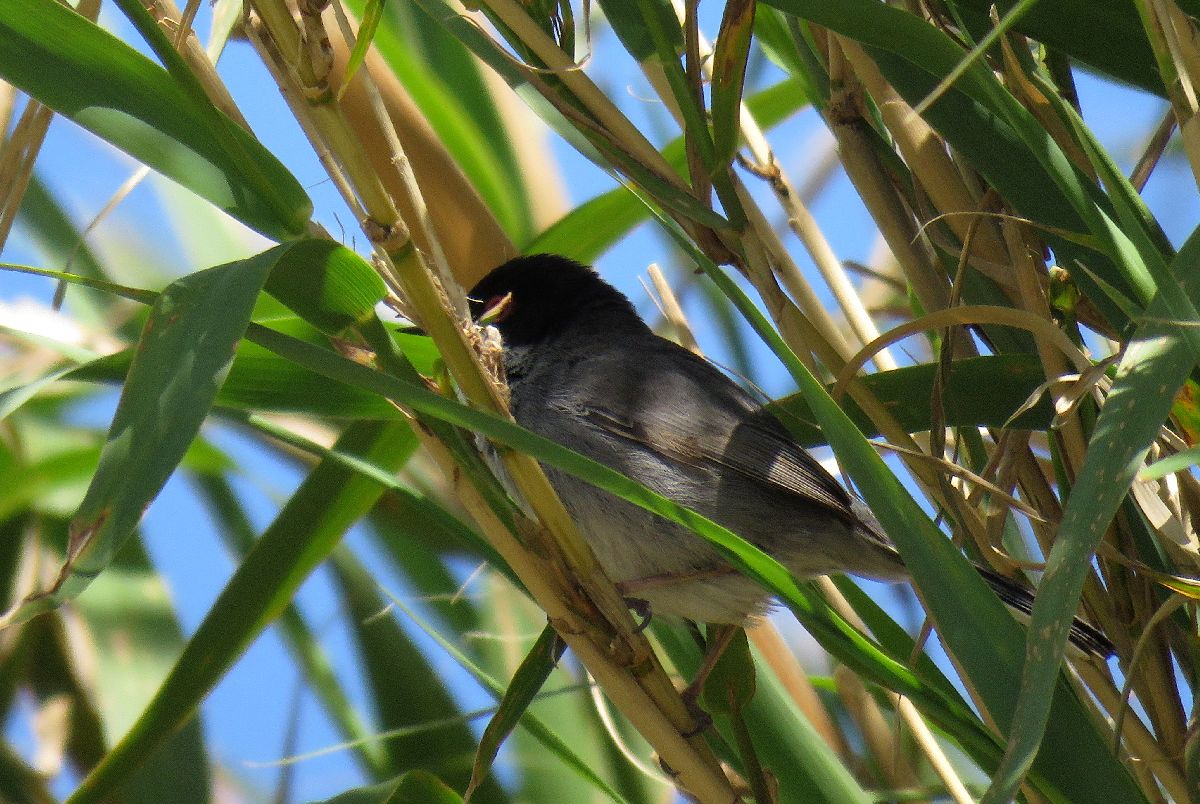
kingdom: Animalia
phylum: Chordata
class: Aves
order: Passeriformes
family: Sylviidae
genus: Sylvia
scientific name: Sylvia melanocephala
